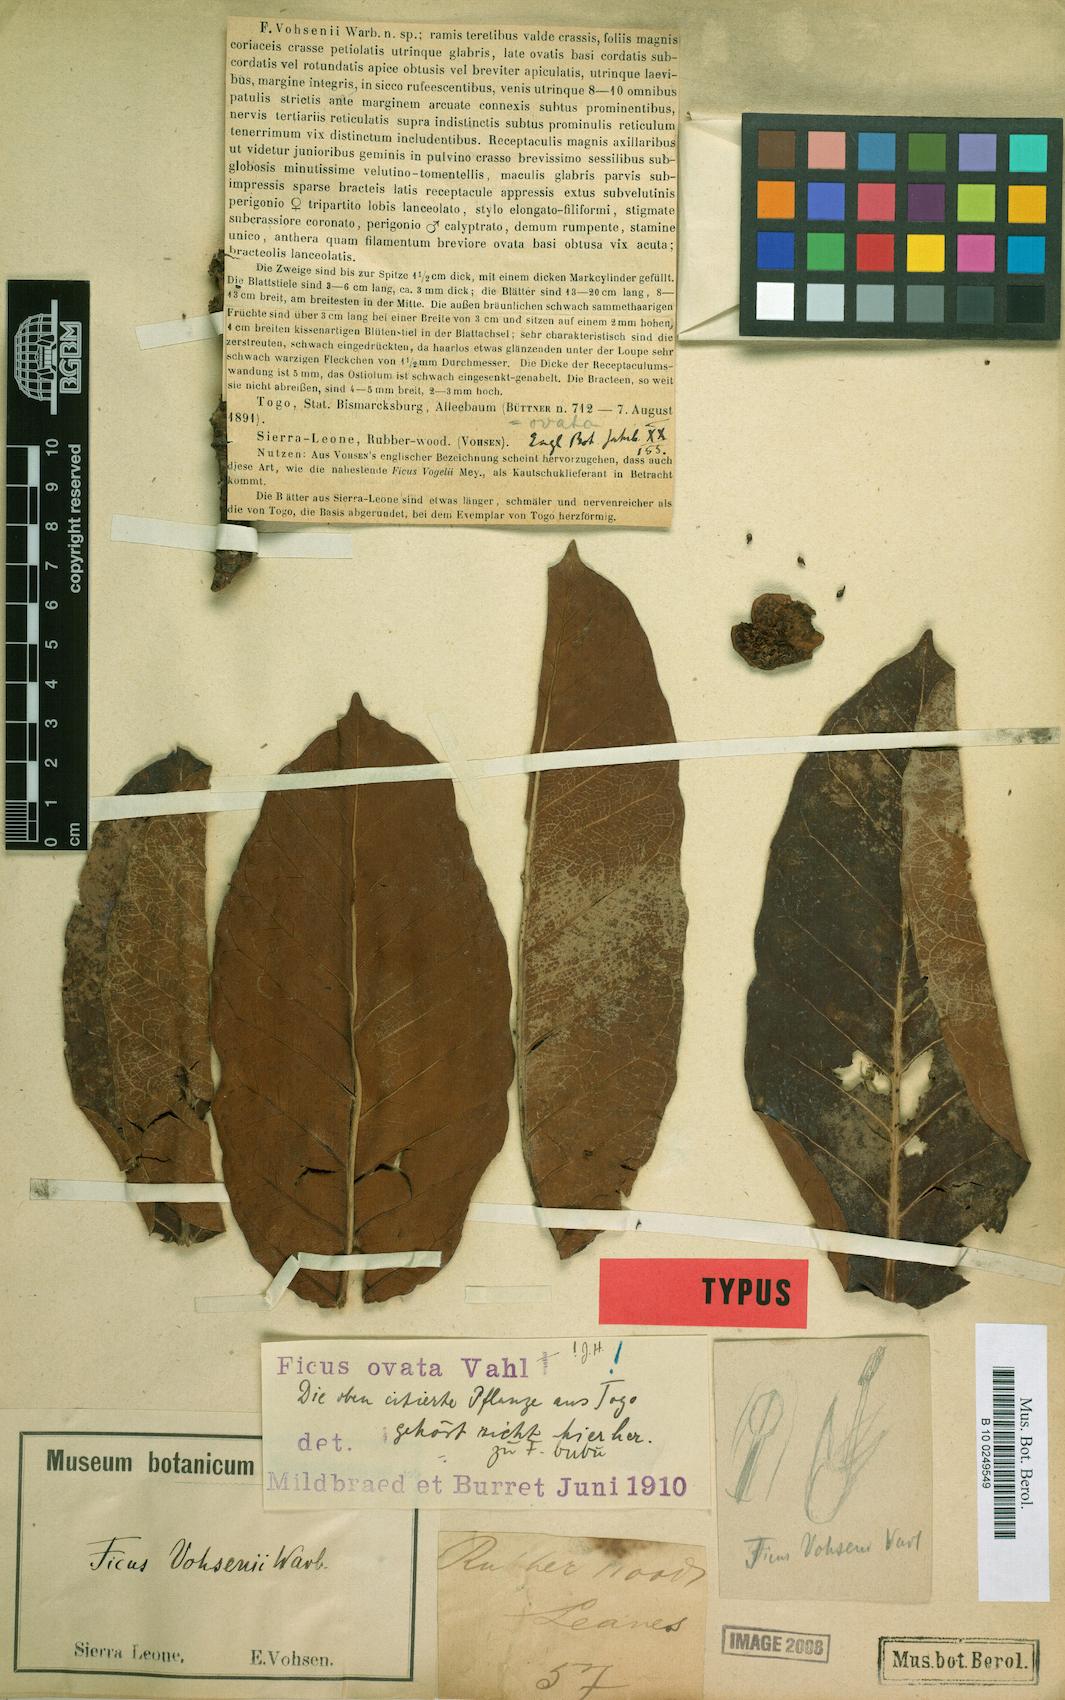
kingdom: Plantae
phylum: Tracheophyta
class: Magnoliopsida
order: Rosales
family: Moraceae
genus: Ficus
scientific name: Ficus laurifolia
